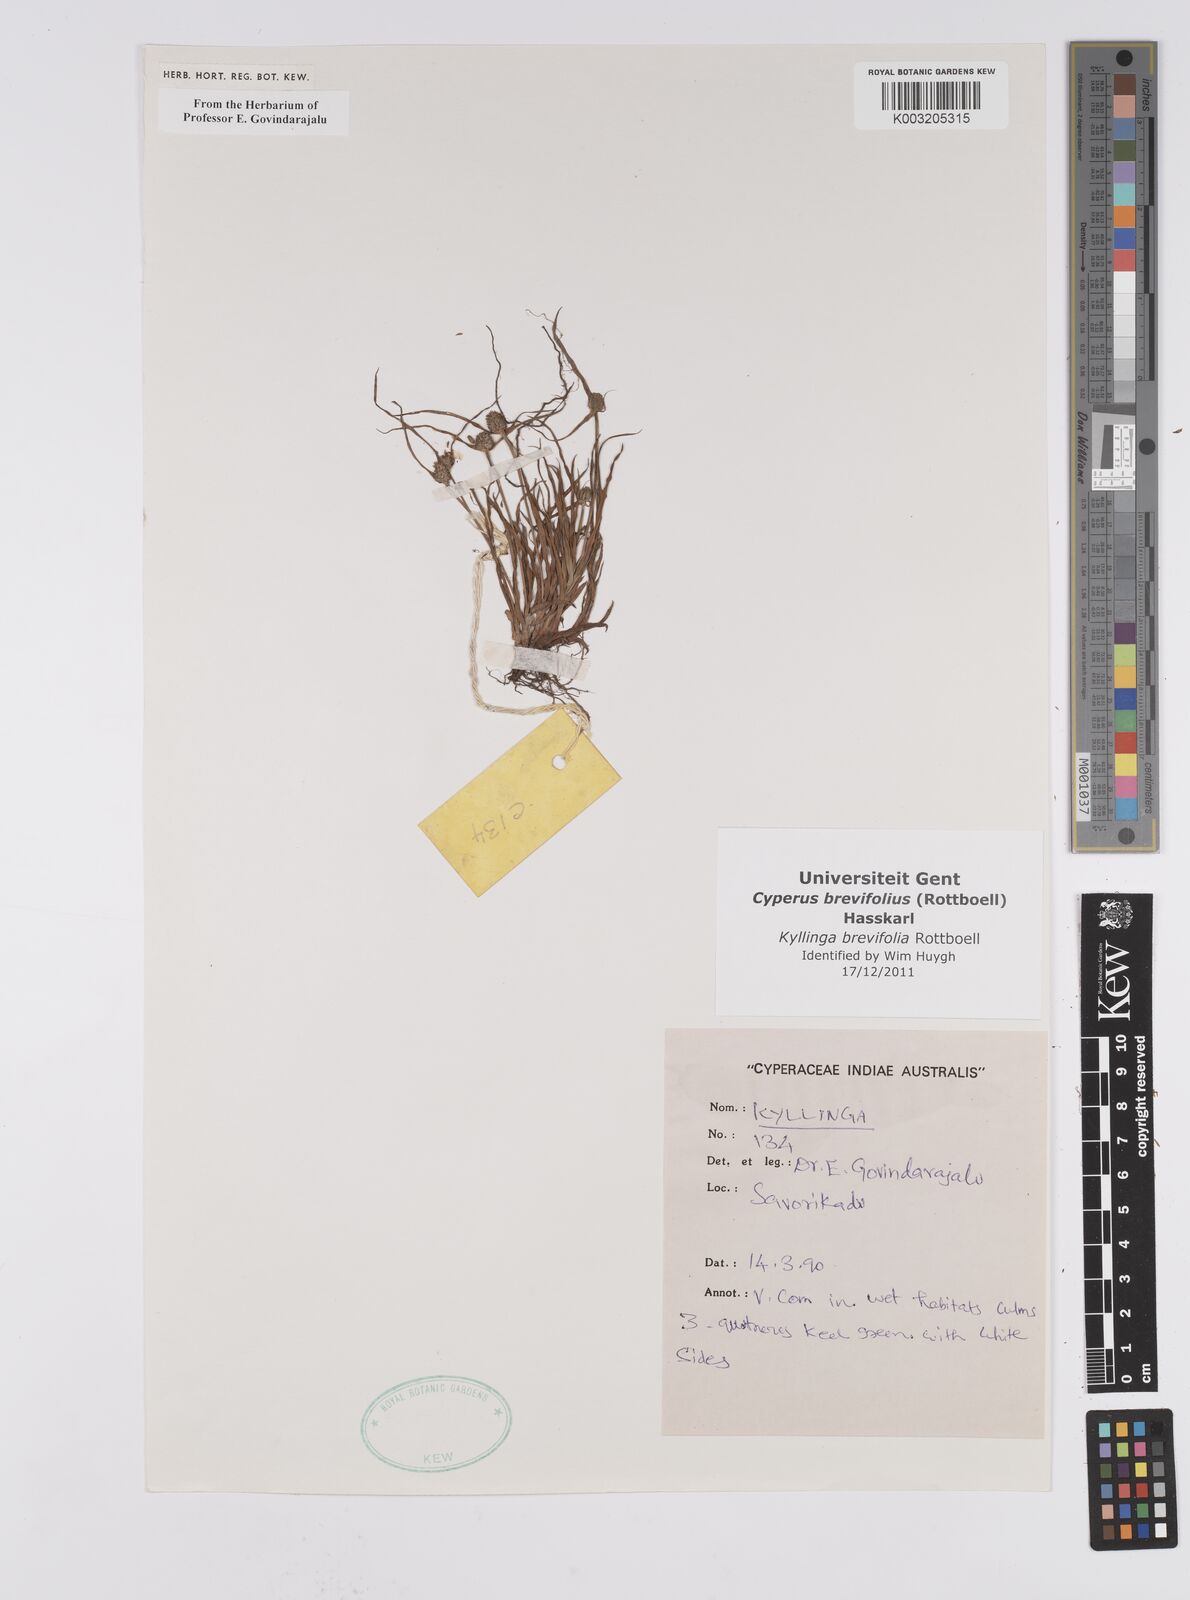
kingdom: Plantae
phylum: Tracheophyta
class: Liliopsida
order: Poales
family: Cyperaceae
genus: Cyperus
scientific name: Cyperus brevifolius
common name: Globe kyllinga
